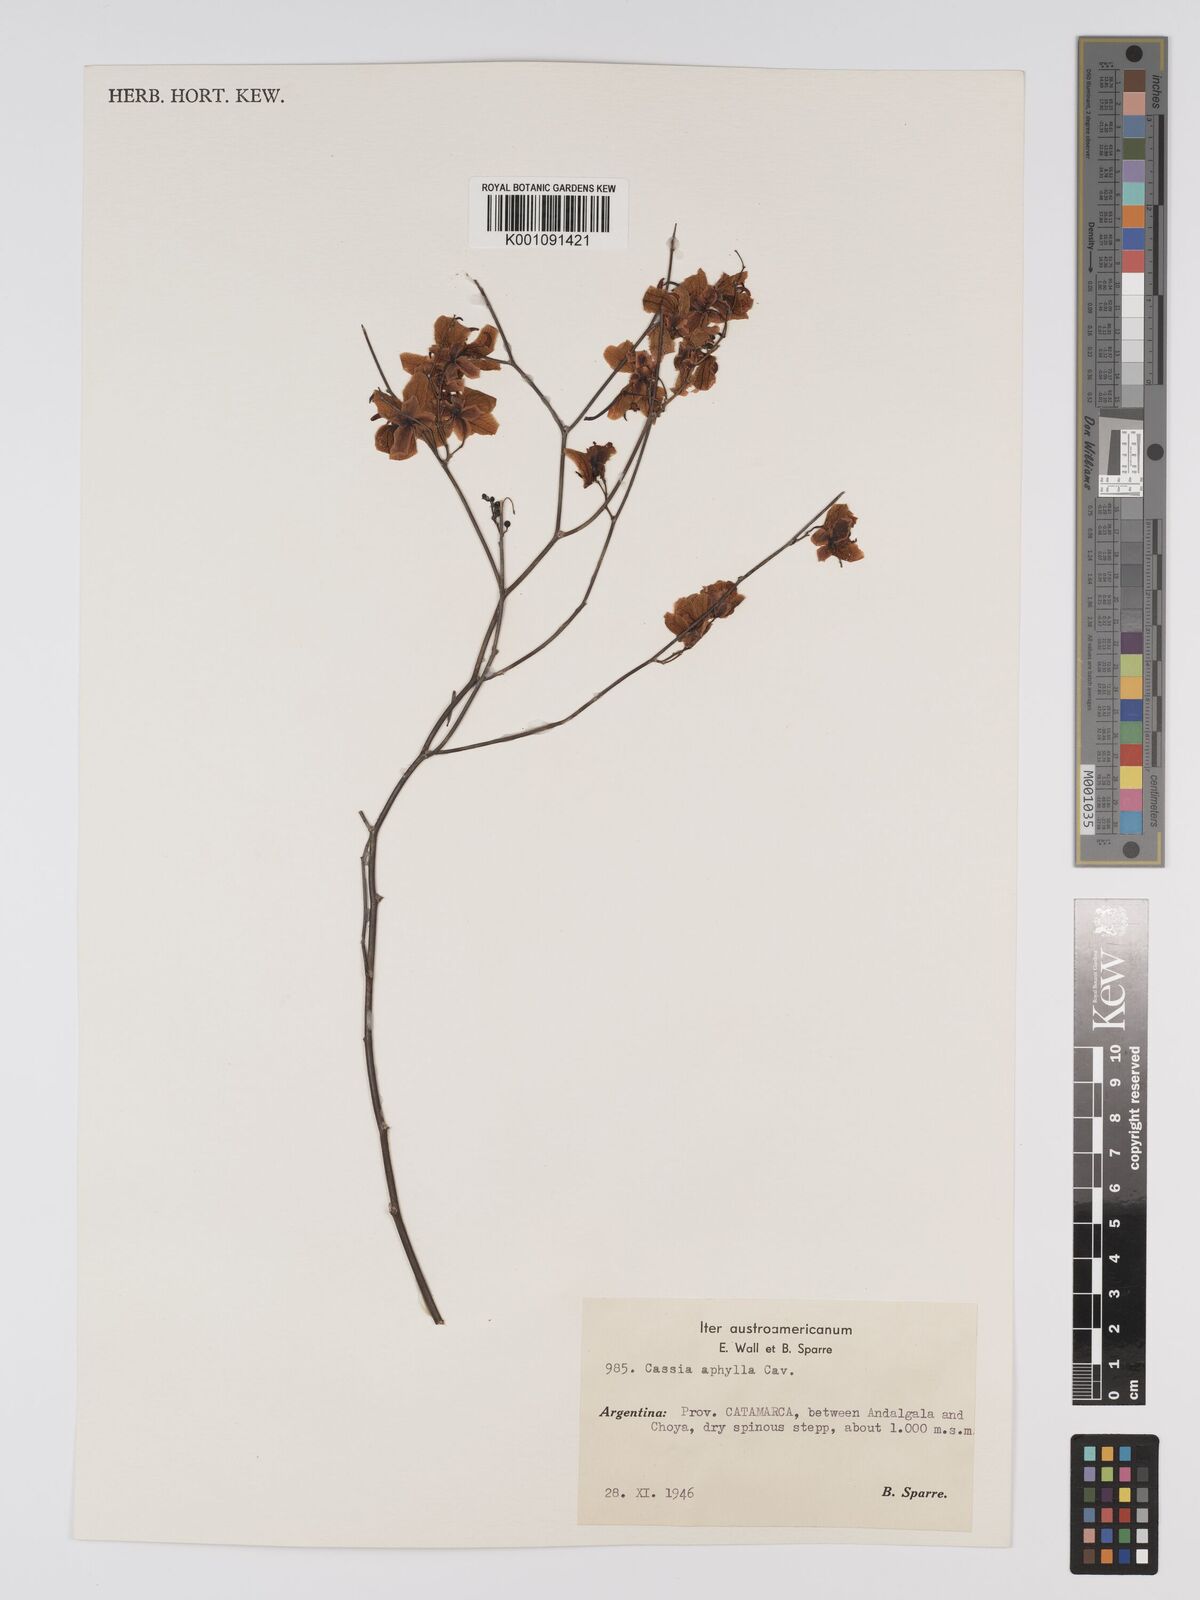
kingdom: Plantae
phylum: Tracheophyta
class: Magnoliopsida
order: Fabales
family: Fabaceae
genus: Senna
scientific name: Senna aphylla
